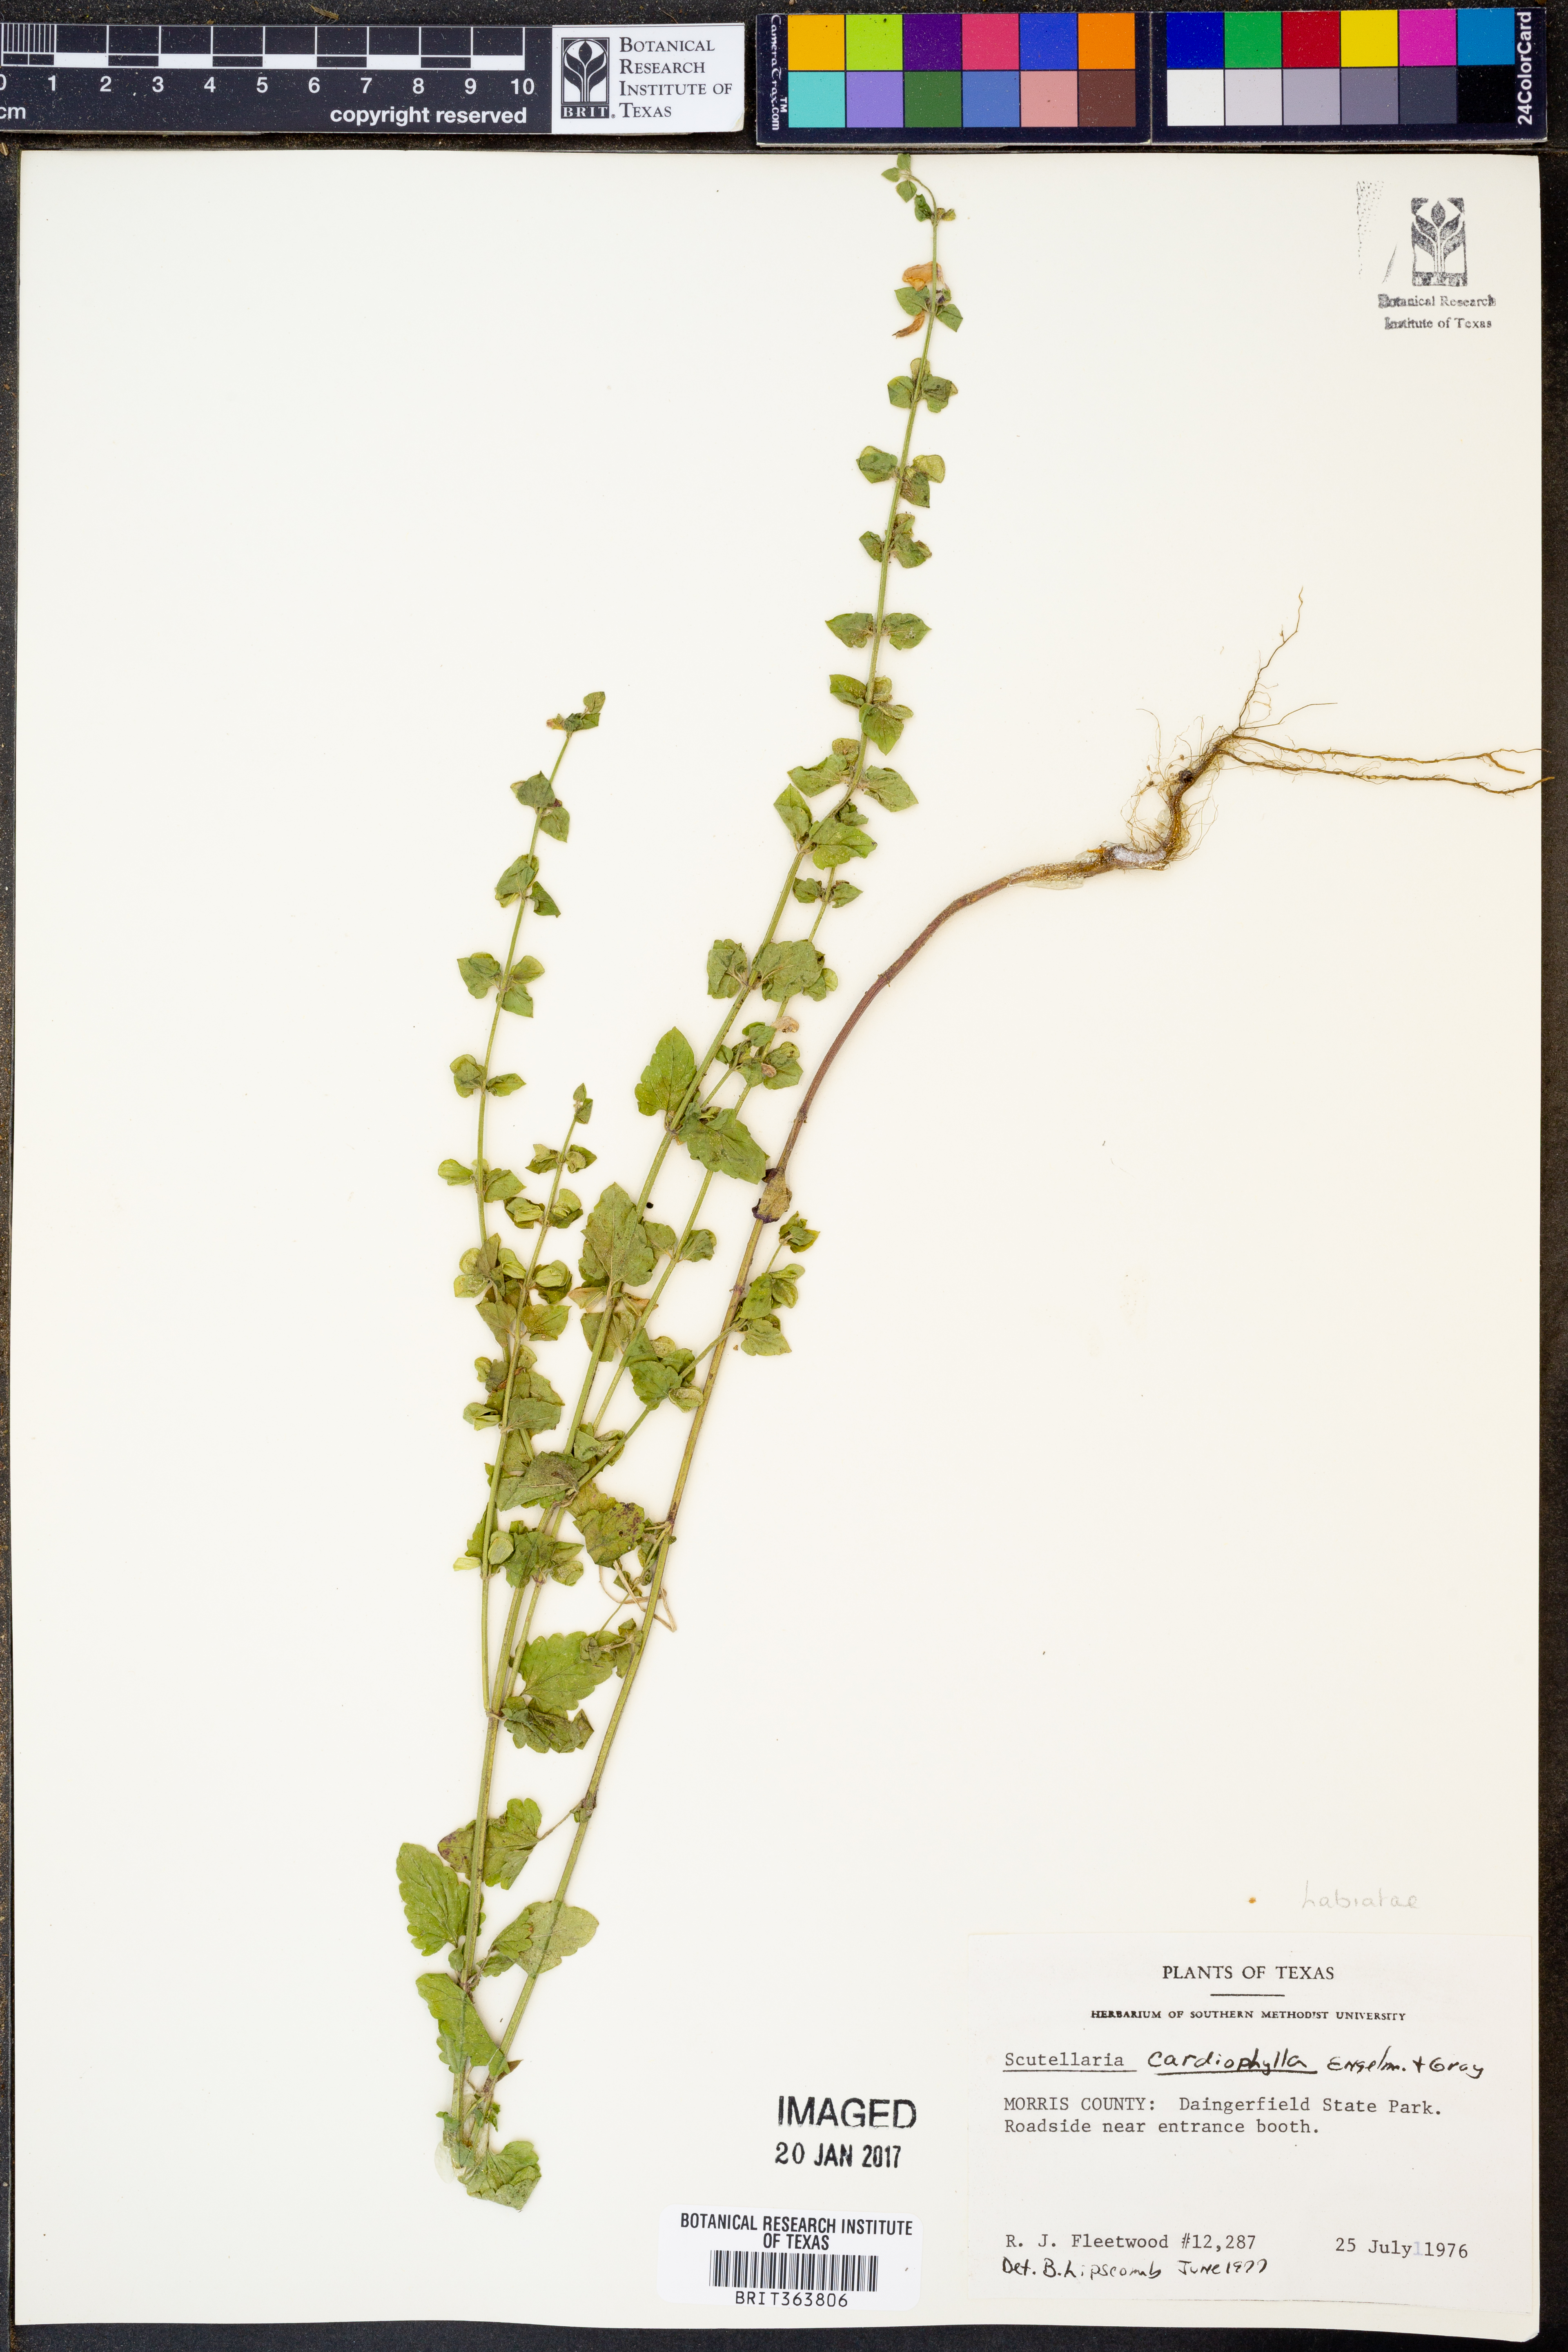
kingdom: Plantae
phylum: Tracheophyta
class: Magnoliopsida
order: Lamiales
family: Lamiaceae
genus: Scutellaria
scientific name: Scutellaria cardiophylla
